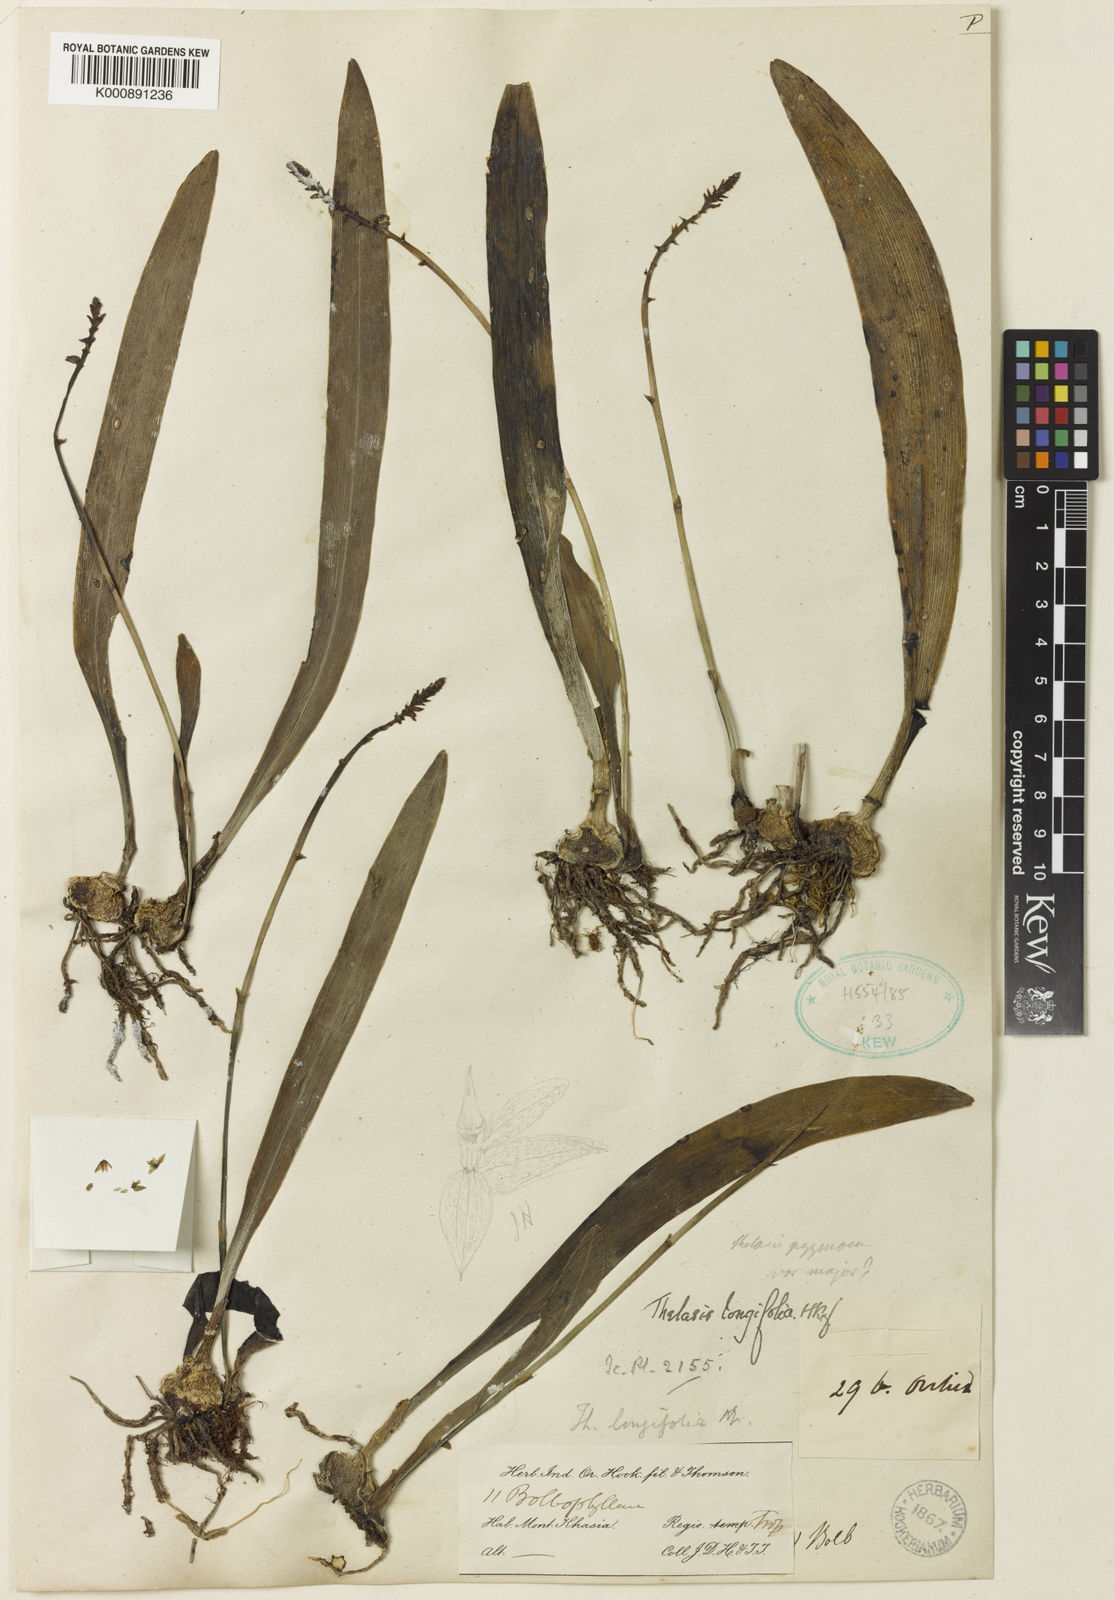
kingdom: Plantae
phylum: Tracheophyta
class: Liliopsida
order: Asparagales
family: Orchidaceae
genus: Thelasis
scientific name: Thelasis longifolia
